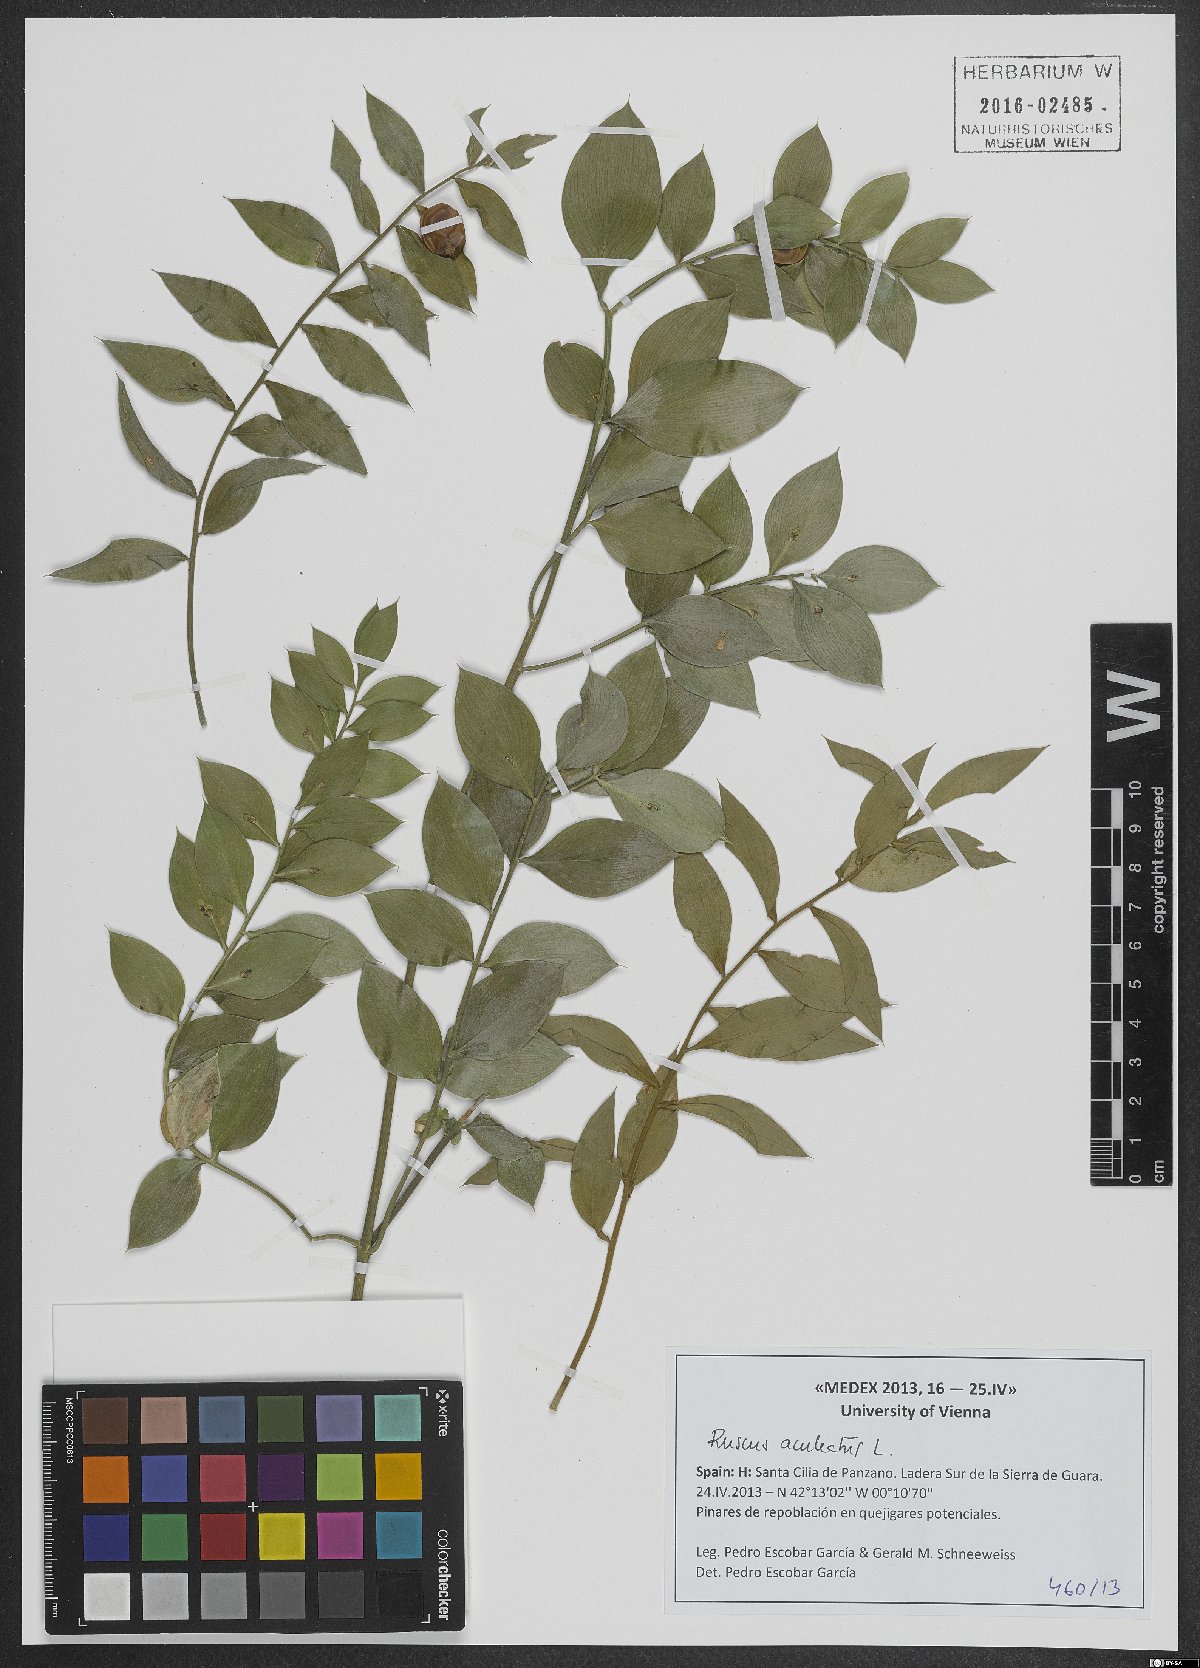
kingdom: Plantae
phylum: Tracheophyta
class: Liliopsida
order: Asparagales
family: Asparagaceae
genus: Ruscus
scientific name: Ruscus aculeatus
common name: Butcher's-broom
